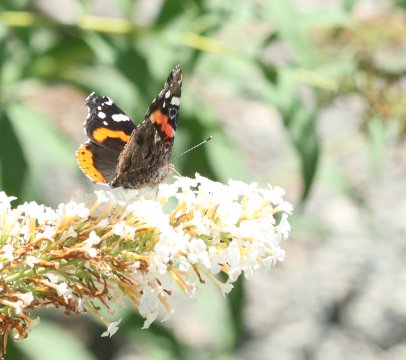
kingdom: Animalia
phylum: Arthropoda
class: Insecta
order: Lepidoptera
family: Nymphalidae
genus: Vanessa
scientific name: Vanessa atalanta
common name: Red Admiral
